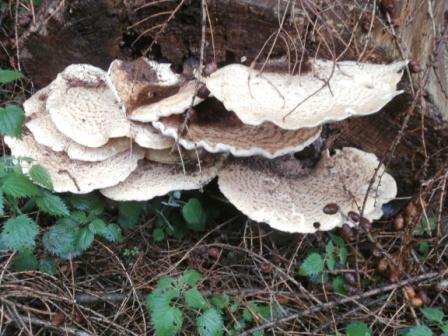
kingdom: Fungi
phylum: Basidiomycota
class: Agaricomycetes
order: Polyporales
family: Polyporaceae
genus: Cerioporus
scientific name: Cerioporus squamosus
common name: skællet stilkporesvamp
